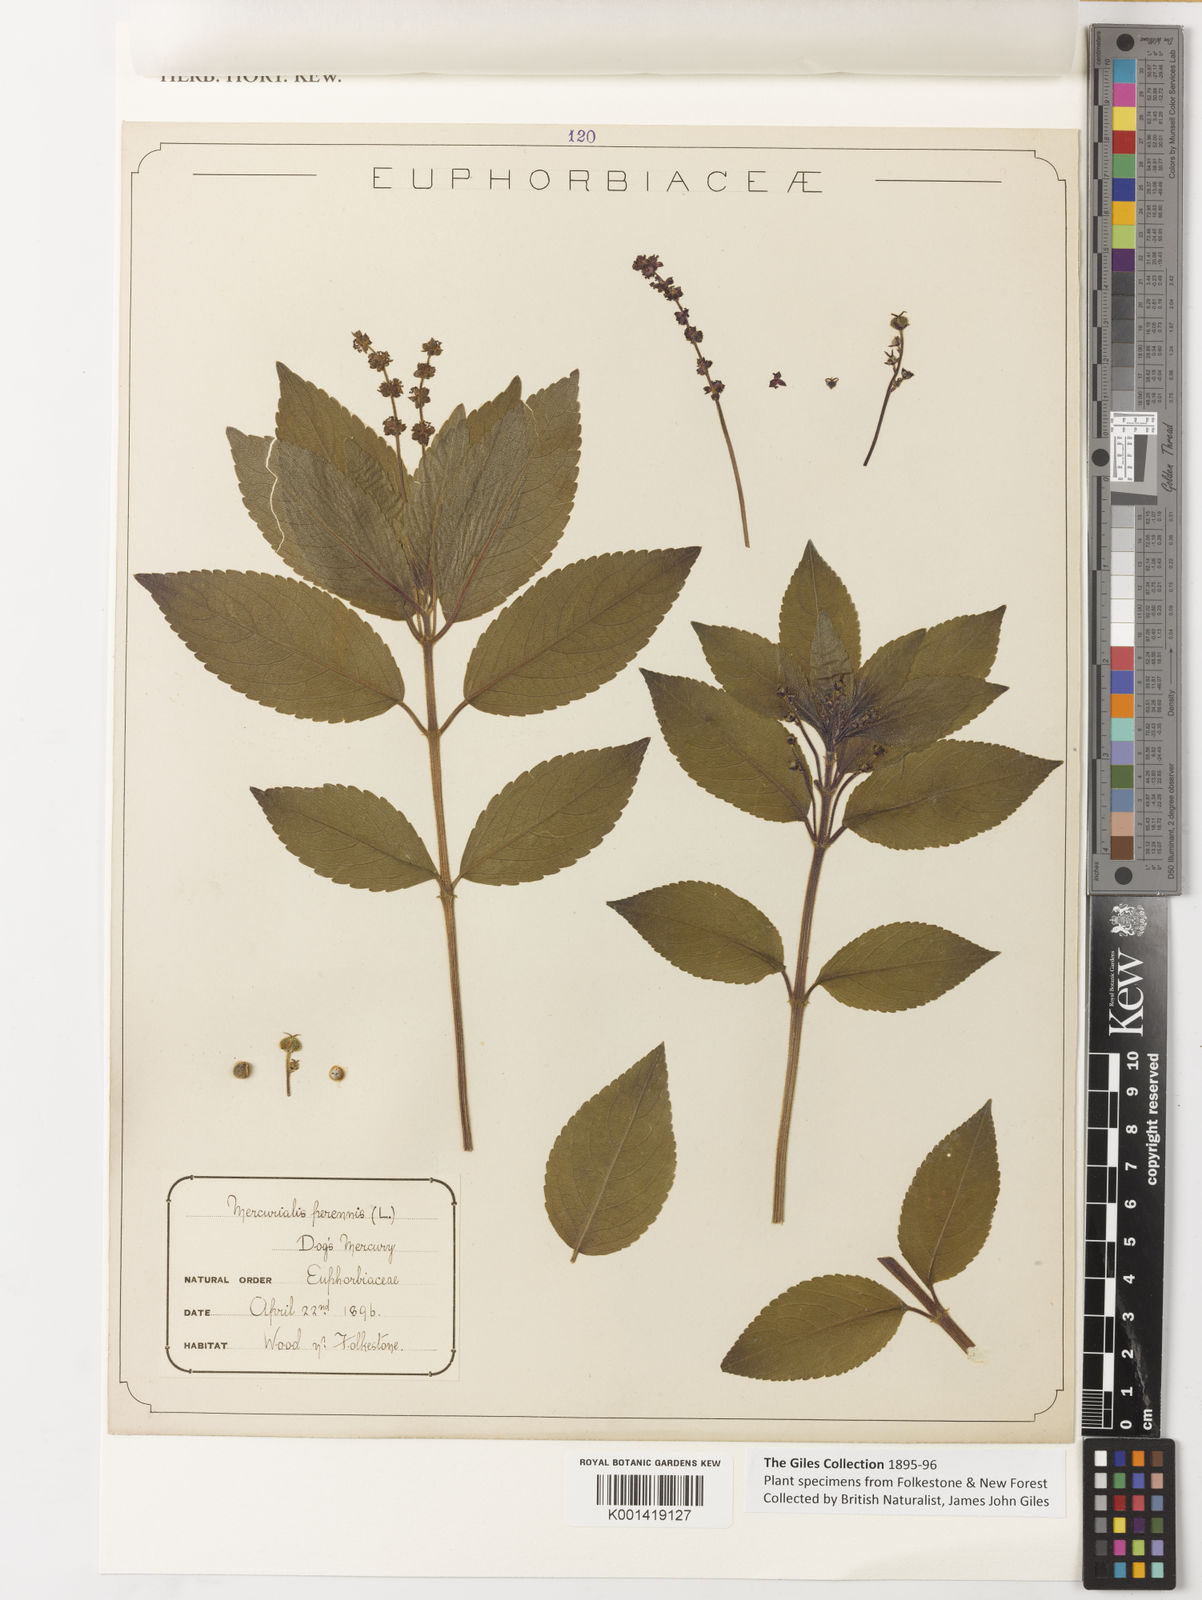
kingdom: Plantae
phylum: Tracheophyta
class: Magnoliopsida
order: Malpighiales
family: Euphorbiaceae
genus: Mercurialis
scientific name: Mercurialis perennis
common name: Dog mercury
